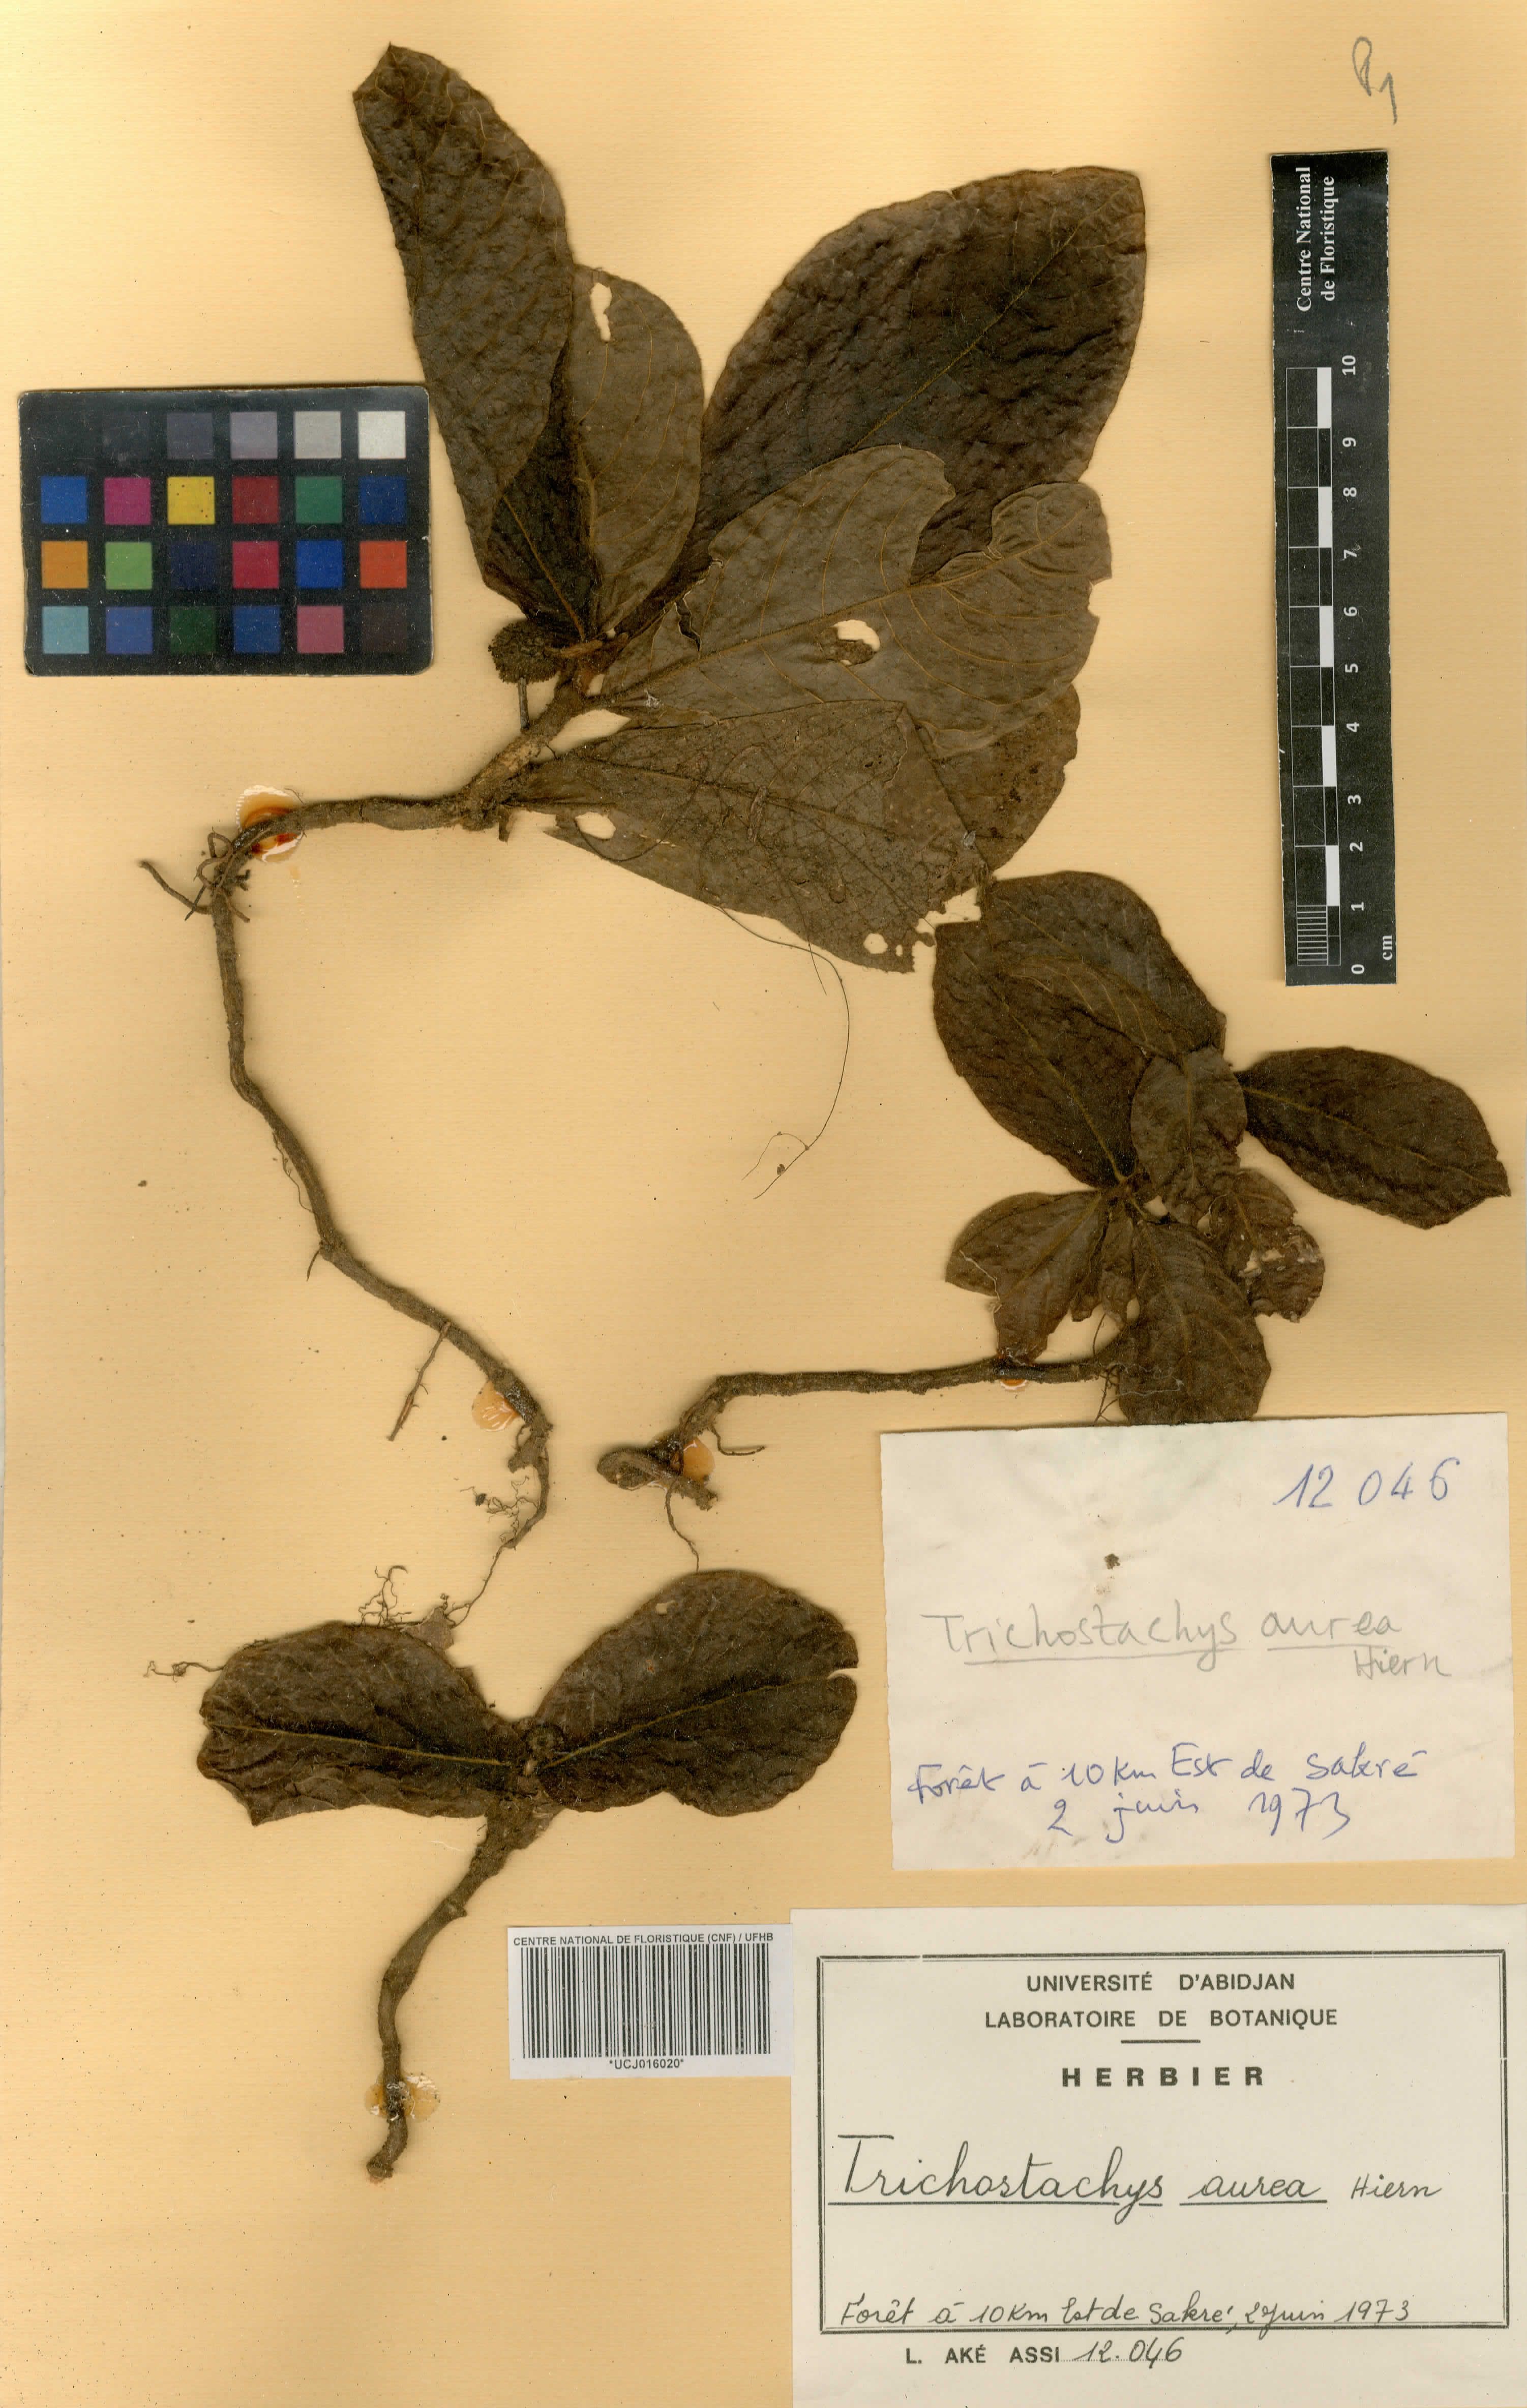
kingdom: Plantae
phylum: Tracheophyta
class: Magnoliopsida
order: Gentianales
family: Rubiaceae
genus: Trichostachys
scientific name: Trichostachys aurea
